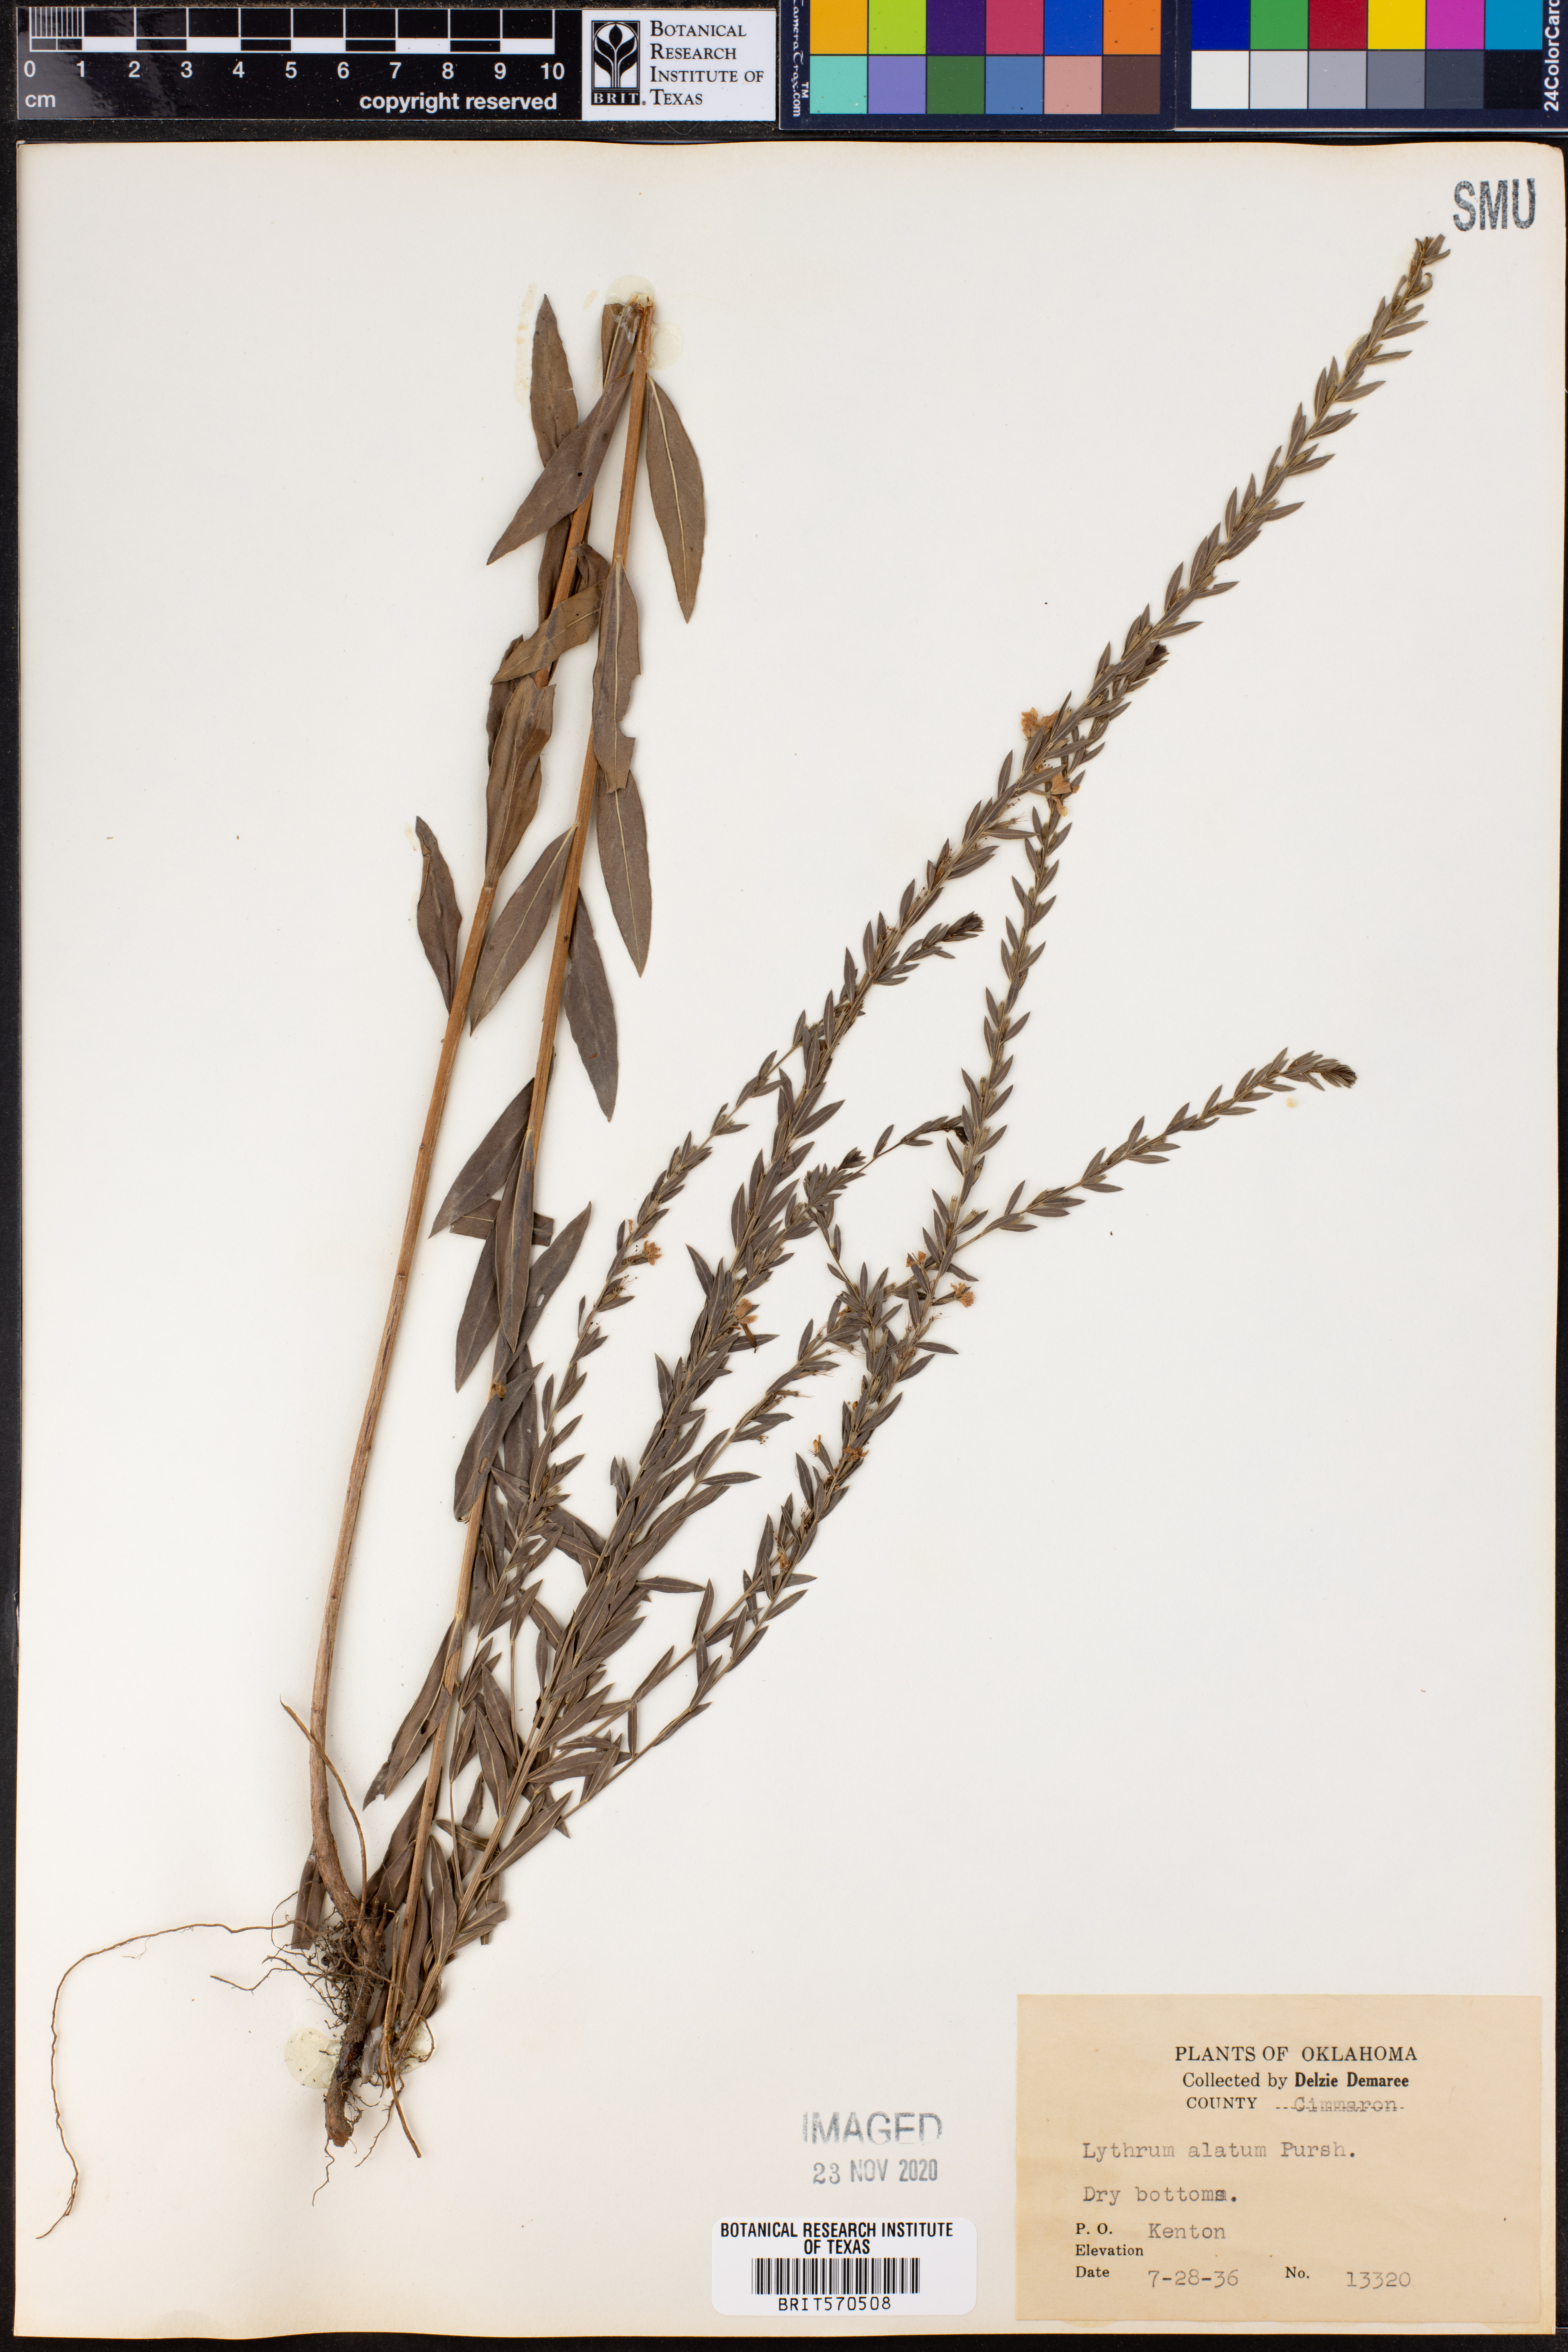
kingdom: Plantae
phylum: Tracheophyta
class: Magnoliopsida
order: Myrtales
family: Lythraceae
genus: Lythrum
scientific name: Lythrum alatum
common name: Winged loosestrife
